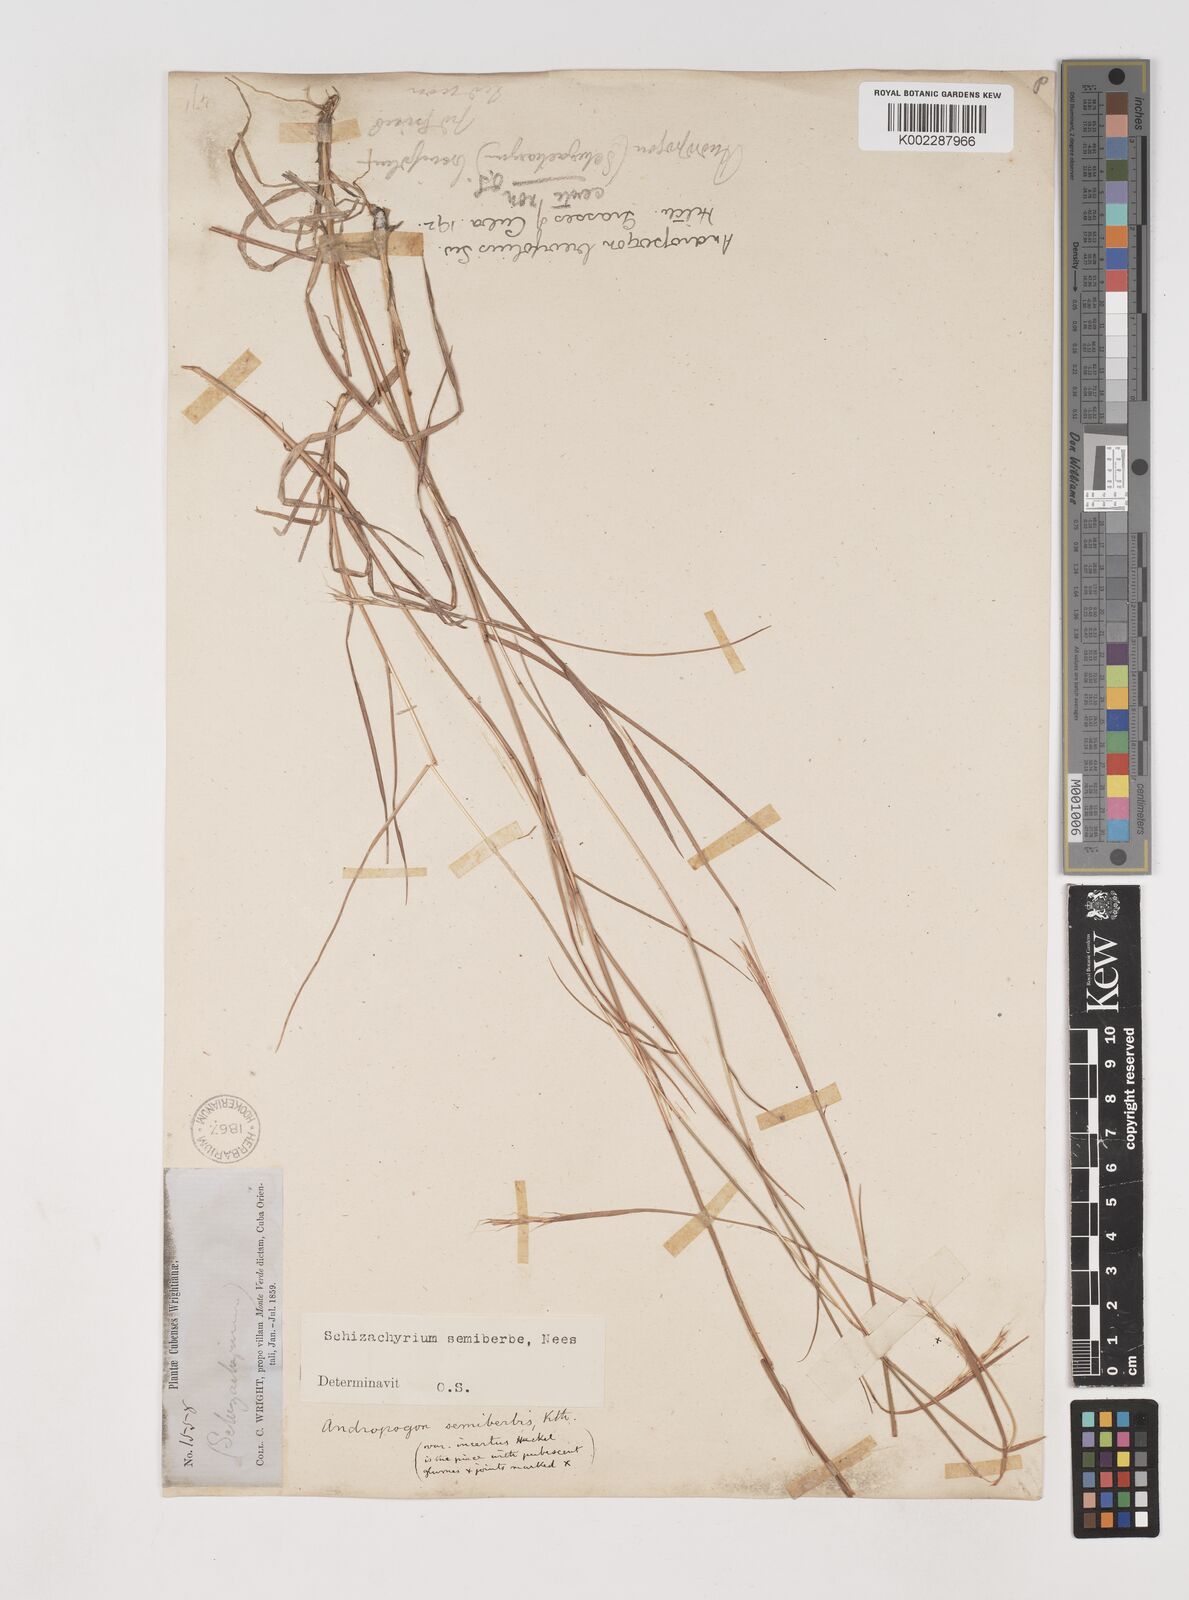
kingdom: Plantae
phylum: Tracheophyta
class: Liliopsida
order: Poales
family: Poaceae
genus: Schizachyrium
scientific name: Schizachyrium sanguineum
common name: Crimson bluestem
